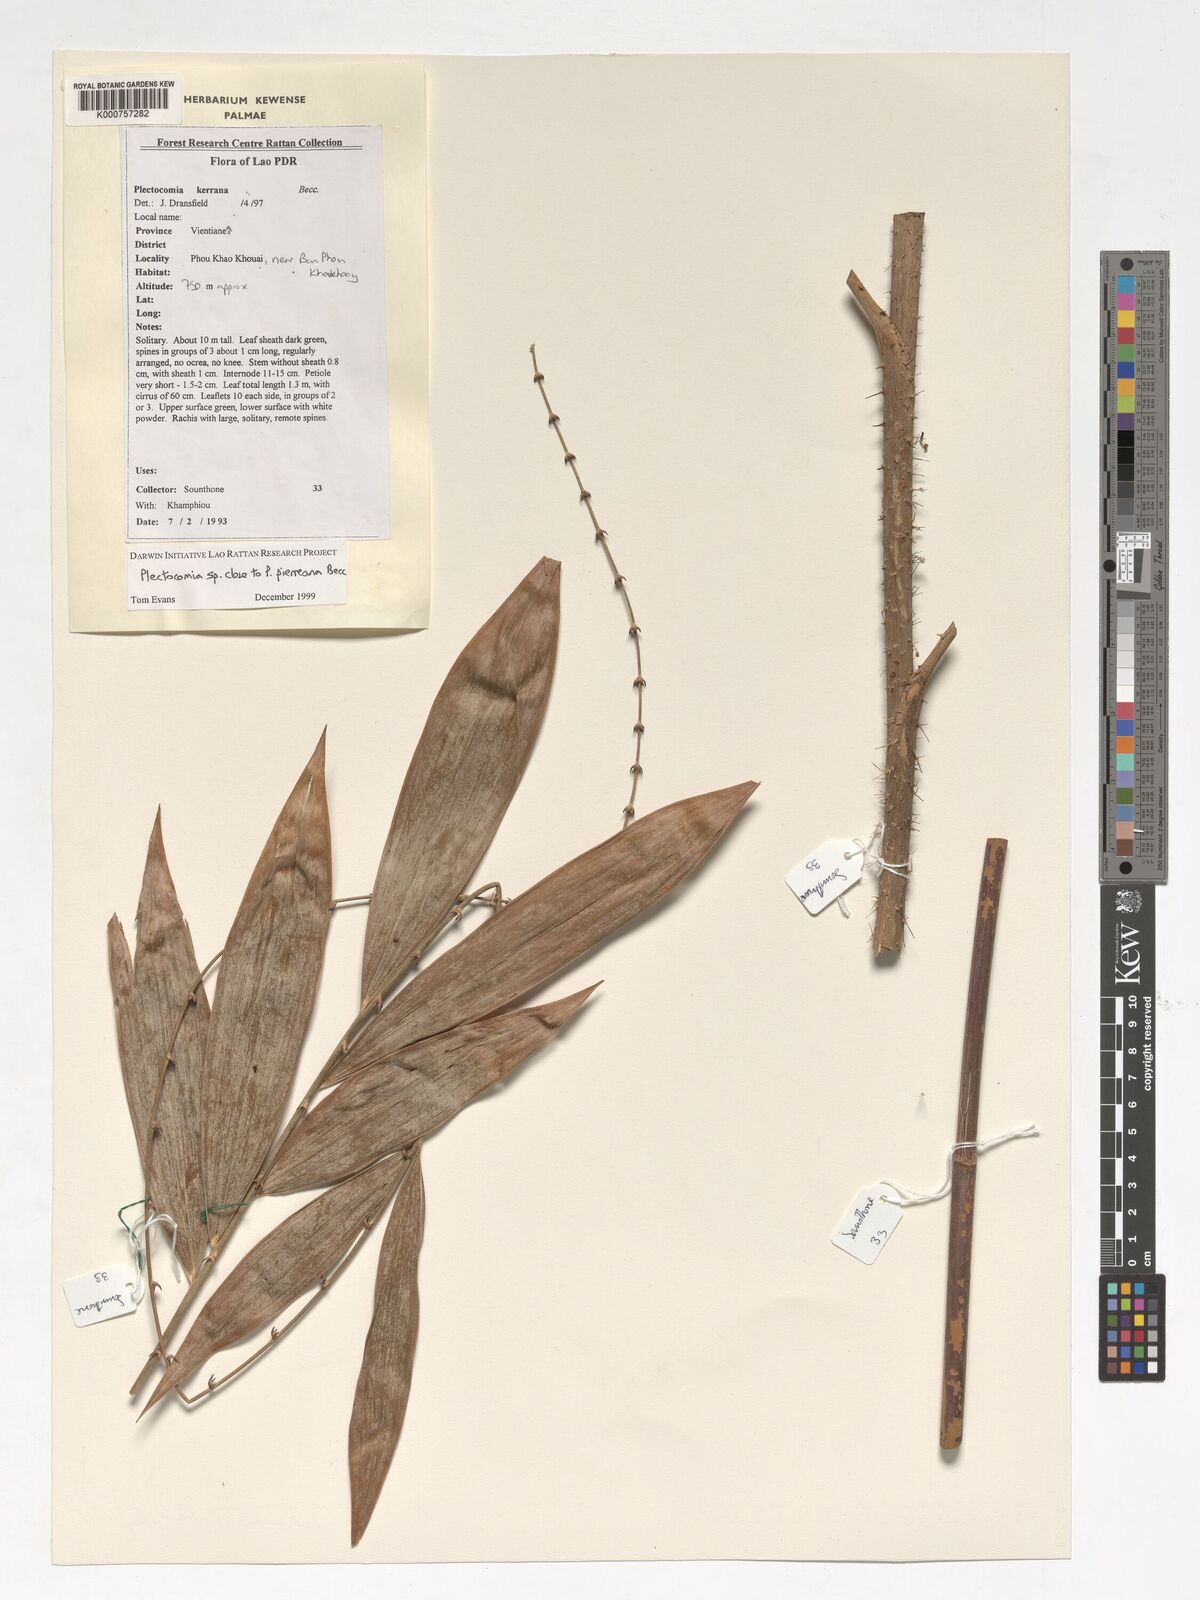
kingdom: Plantae
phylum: Tracheophyta
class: Liliopsida
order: Arecales
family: Arecaceae
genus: Plectocomia
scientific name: Plectocomia pierreana
